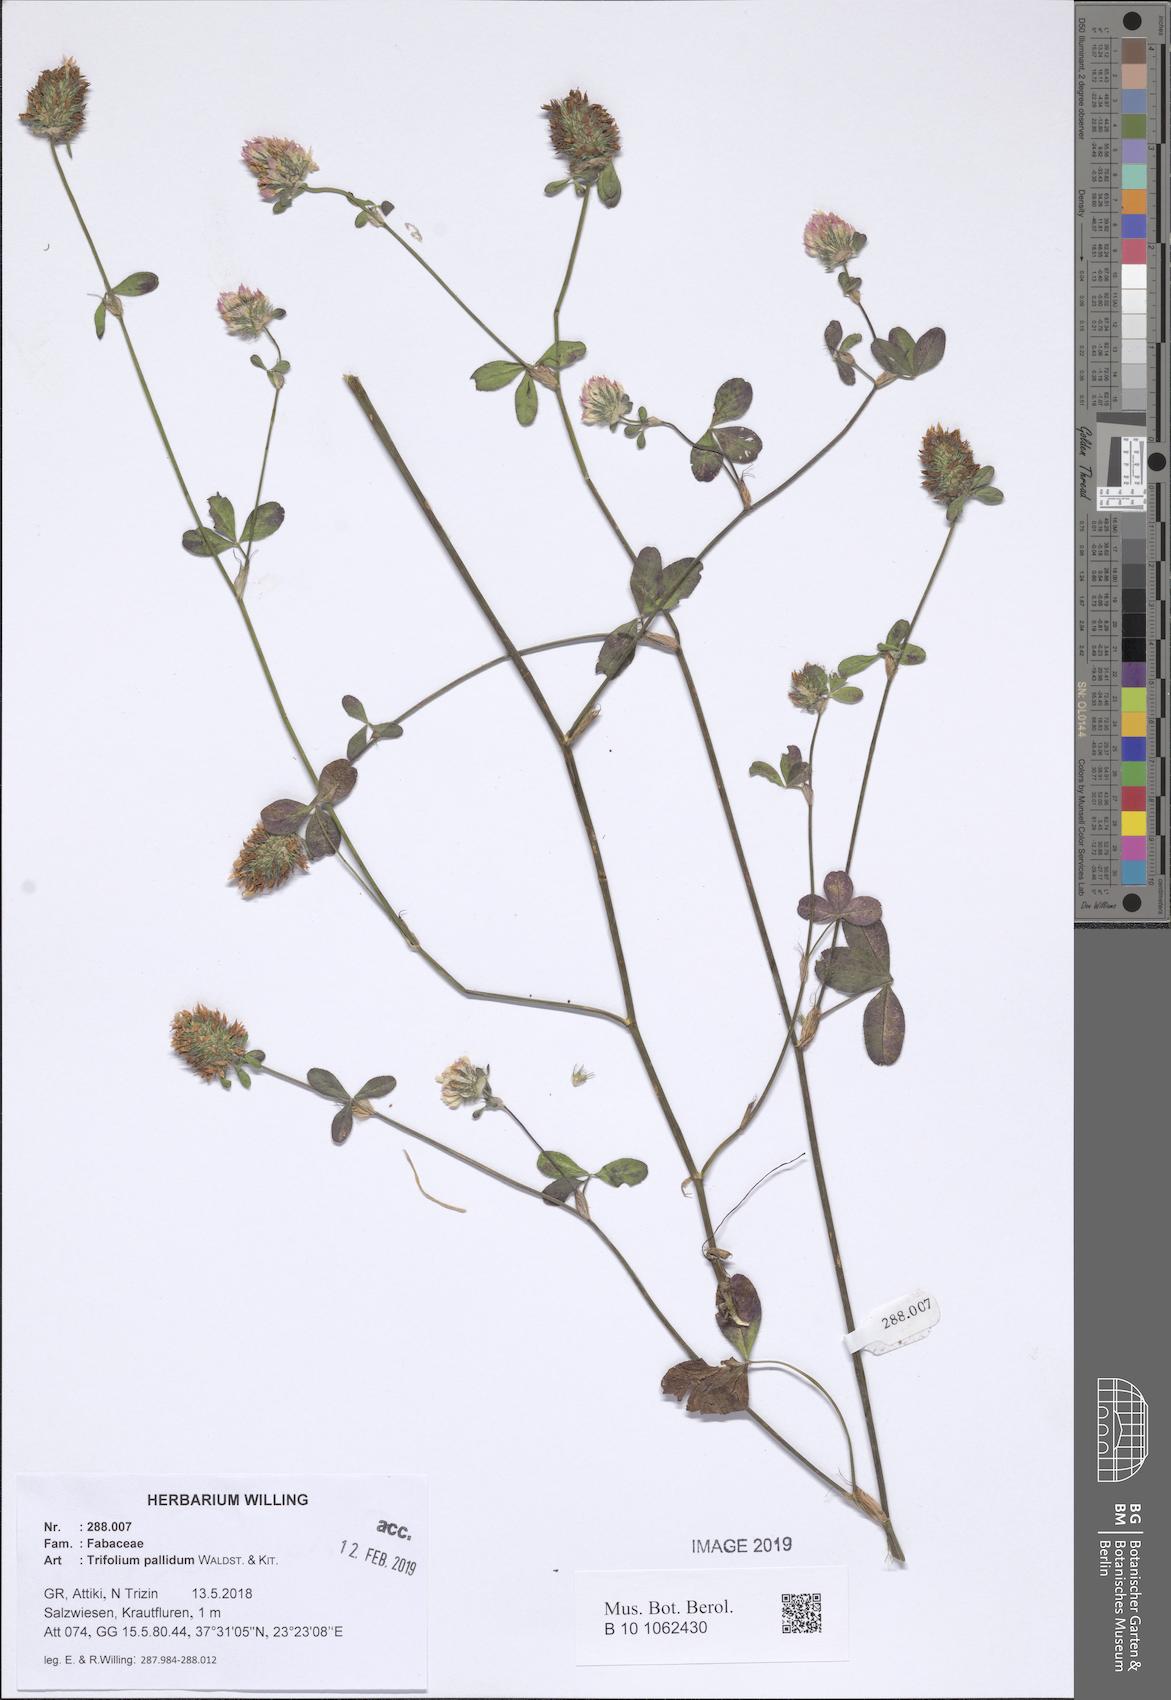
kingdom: Plantae
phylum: Tracheophyta
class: Magnoliopsida
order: Fabales
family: Fabaceae
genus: Trifolium
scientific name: Trifolium pallidum
